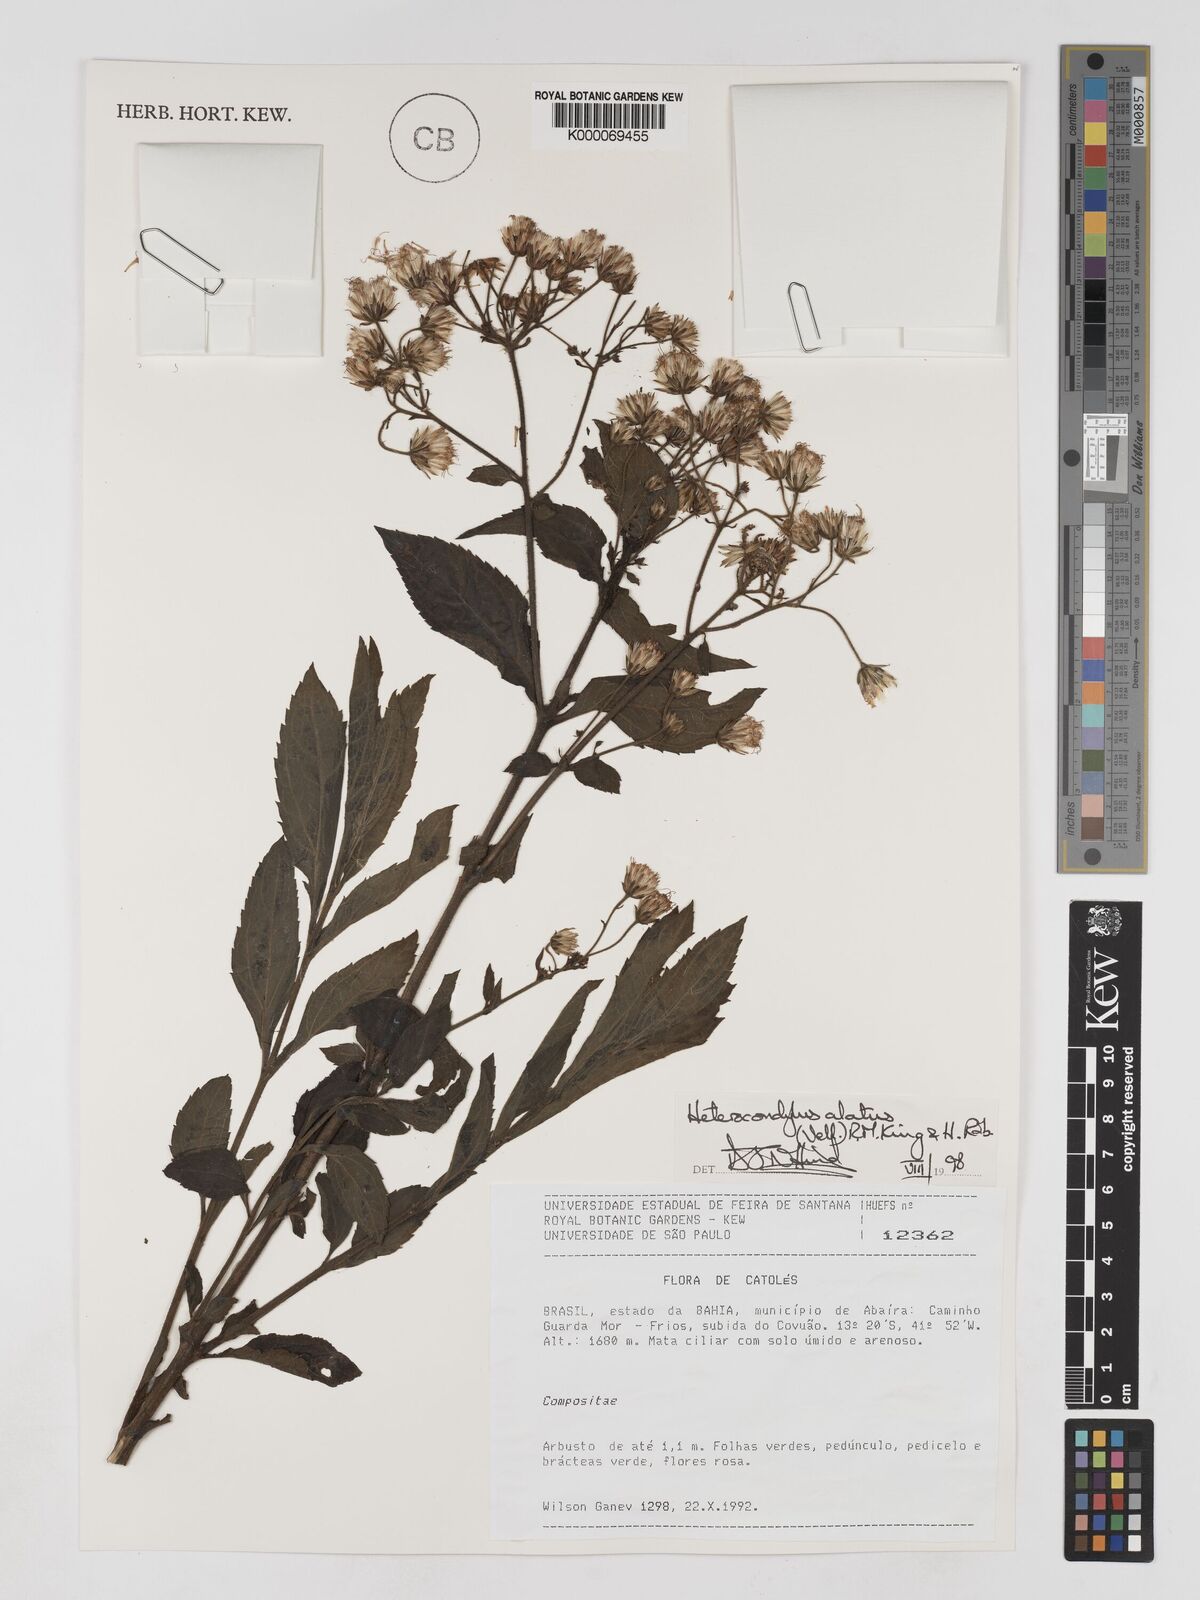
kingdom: Plantae
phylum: Tracheophyta
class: Magnoliopsida
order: Asterales
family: Asteraceae
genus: Heterocondylus
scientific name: Heterocondylus alatus
